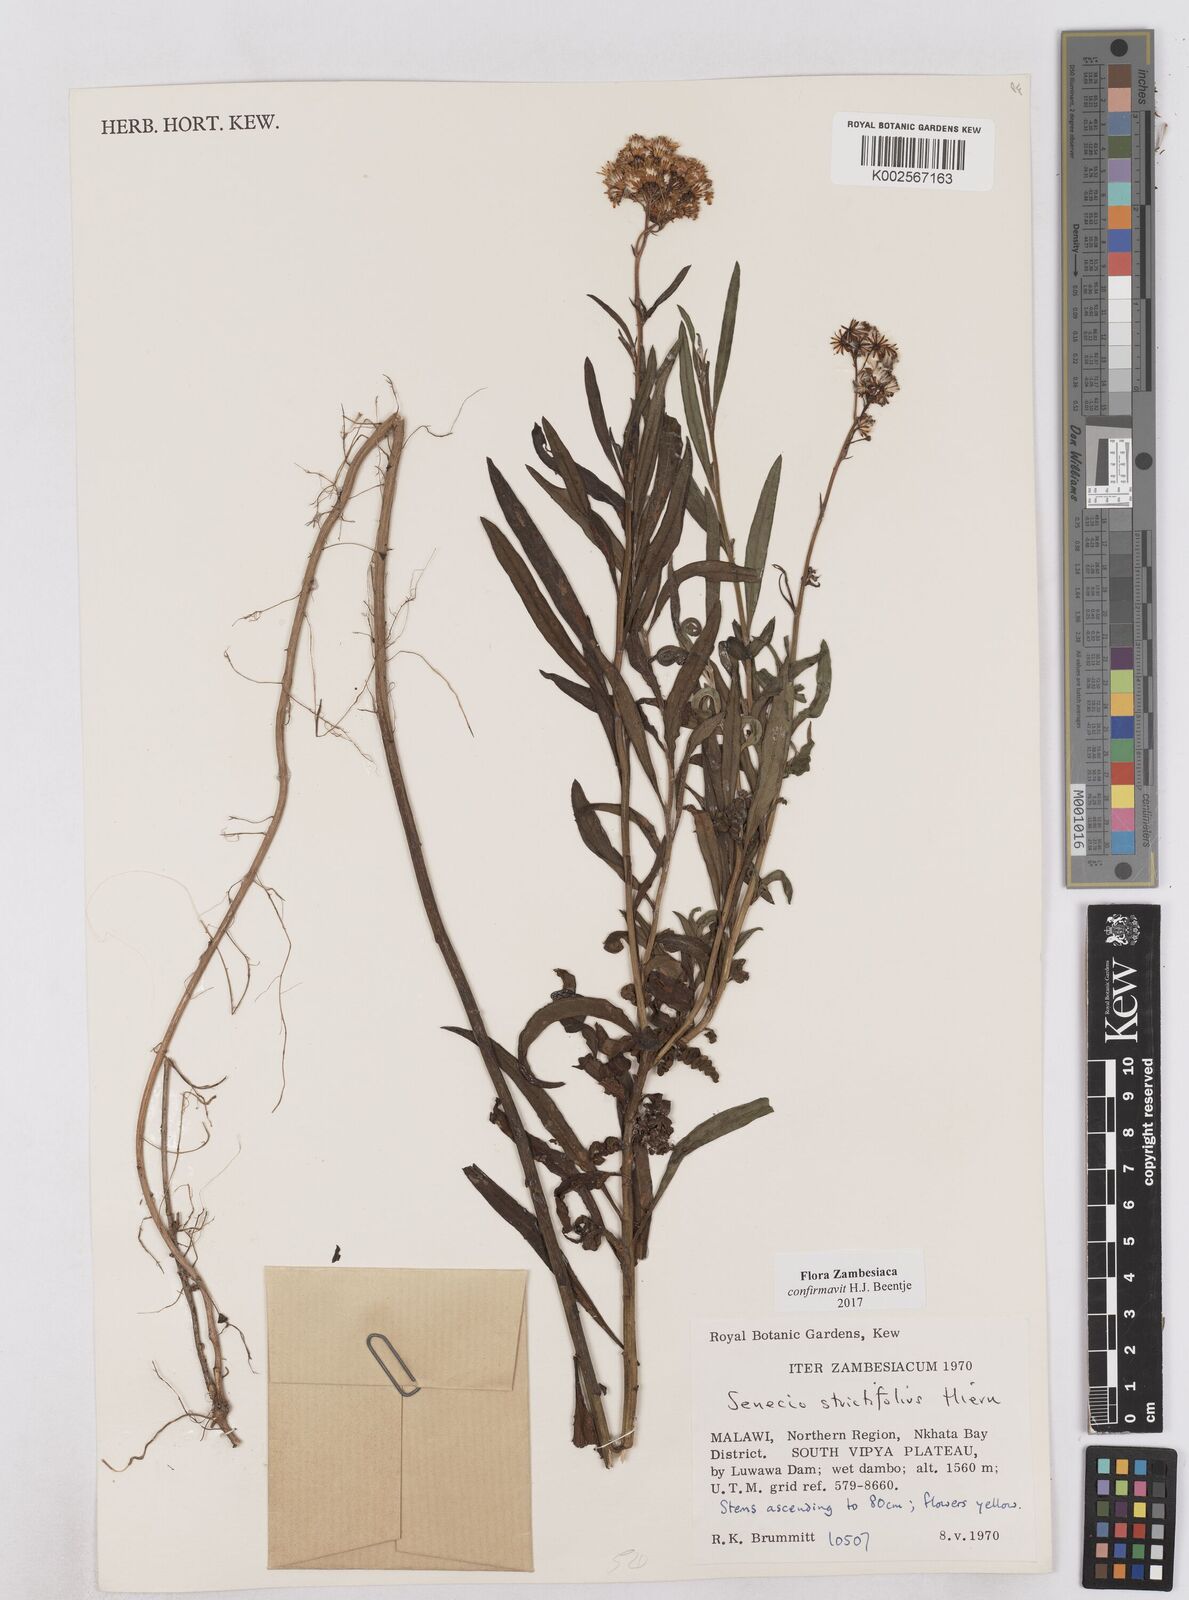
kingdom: Plantae
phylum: Tracheophyta
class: Magnoliopsida
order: Asterales
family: Asteraceae
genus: Senecio
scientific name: Senecio strictifolius
